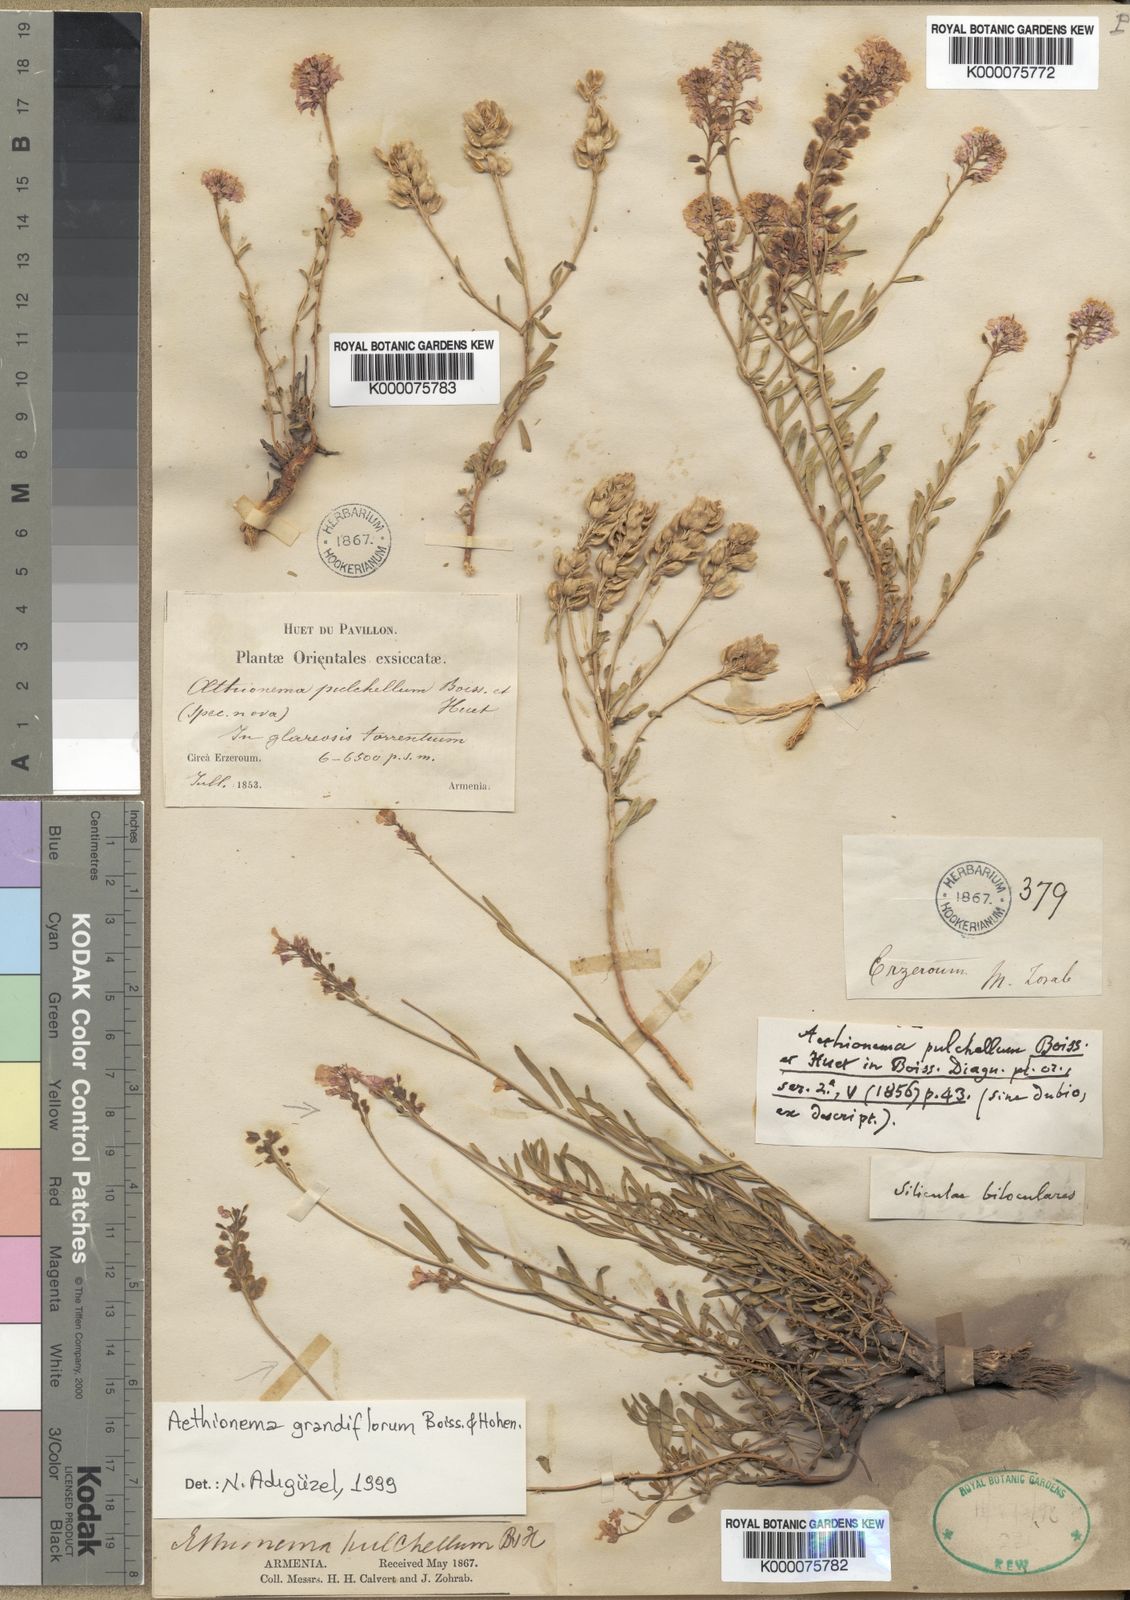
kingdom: Plantae
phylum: Tracheophyta
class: Magnoliopsida
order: Brassicales
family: Brassicaceae
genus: Aethionema
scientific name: Aethionema grandiflorum
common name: Persian stonecress
